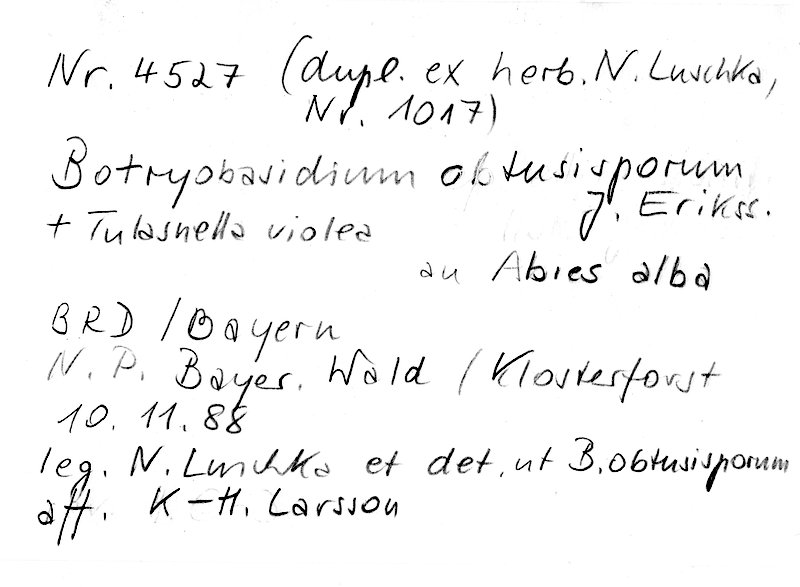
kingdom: Fungi
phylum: Basidiomycota
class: Agaricomycetes
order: Cantharellales
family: Tulasnellaceae
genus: Tulasnella
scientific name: Tulasnella violea
